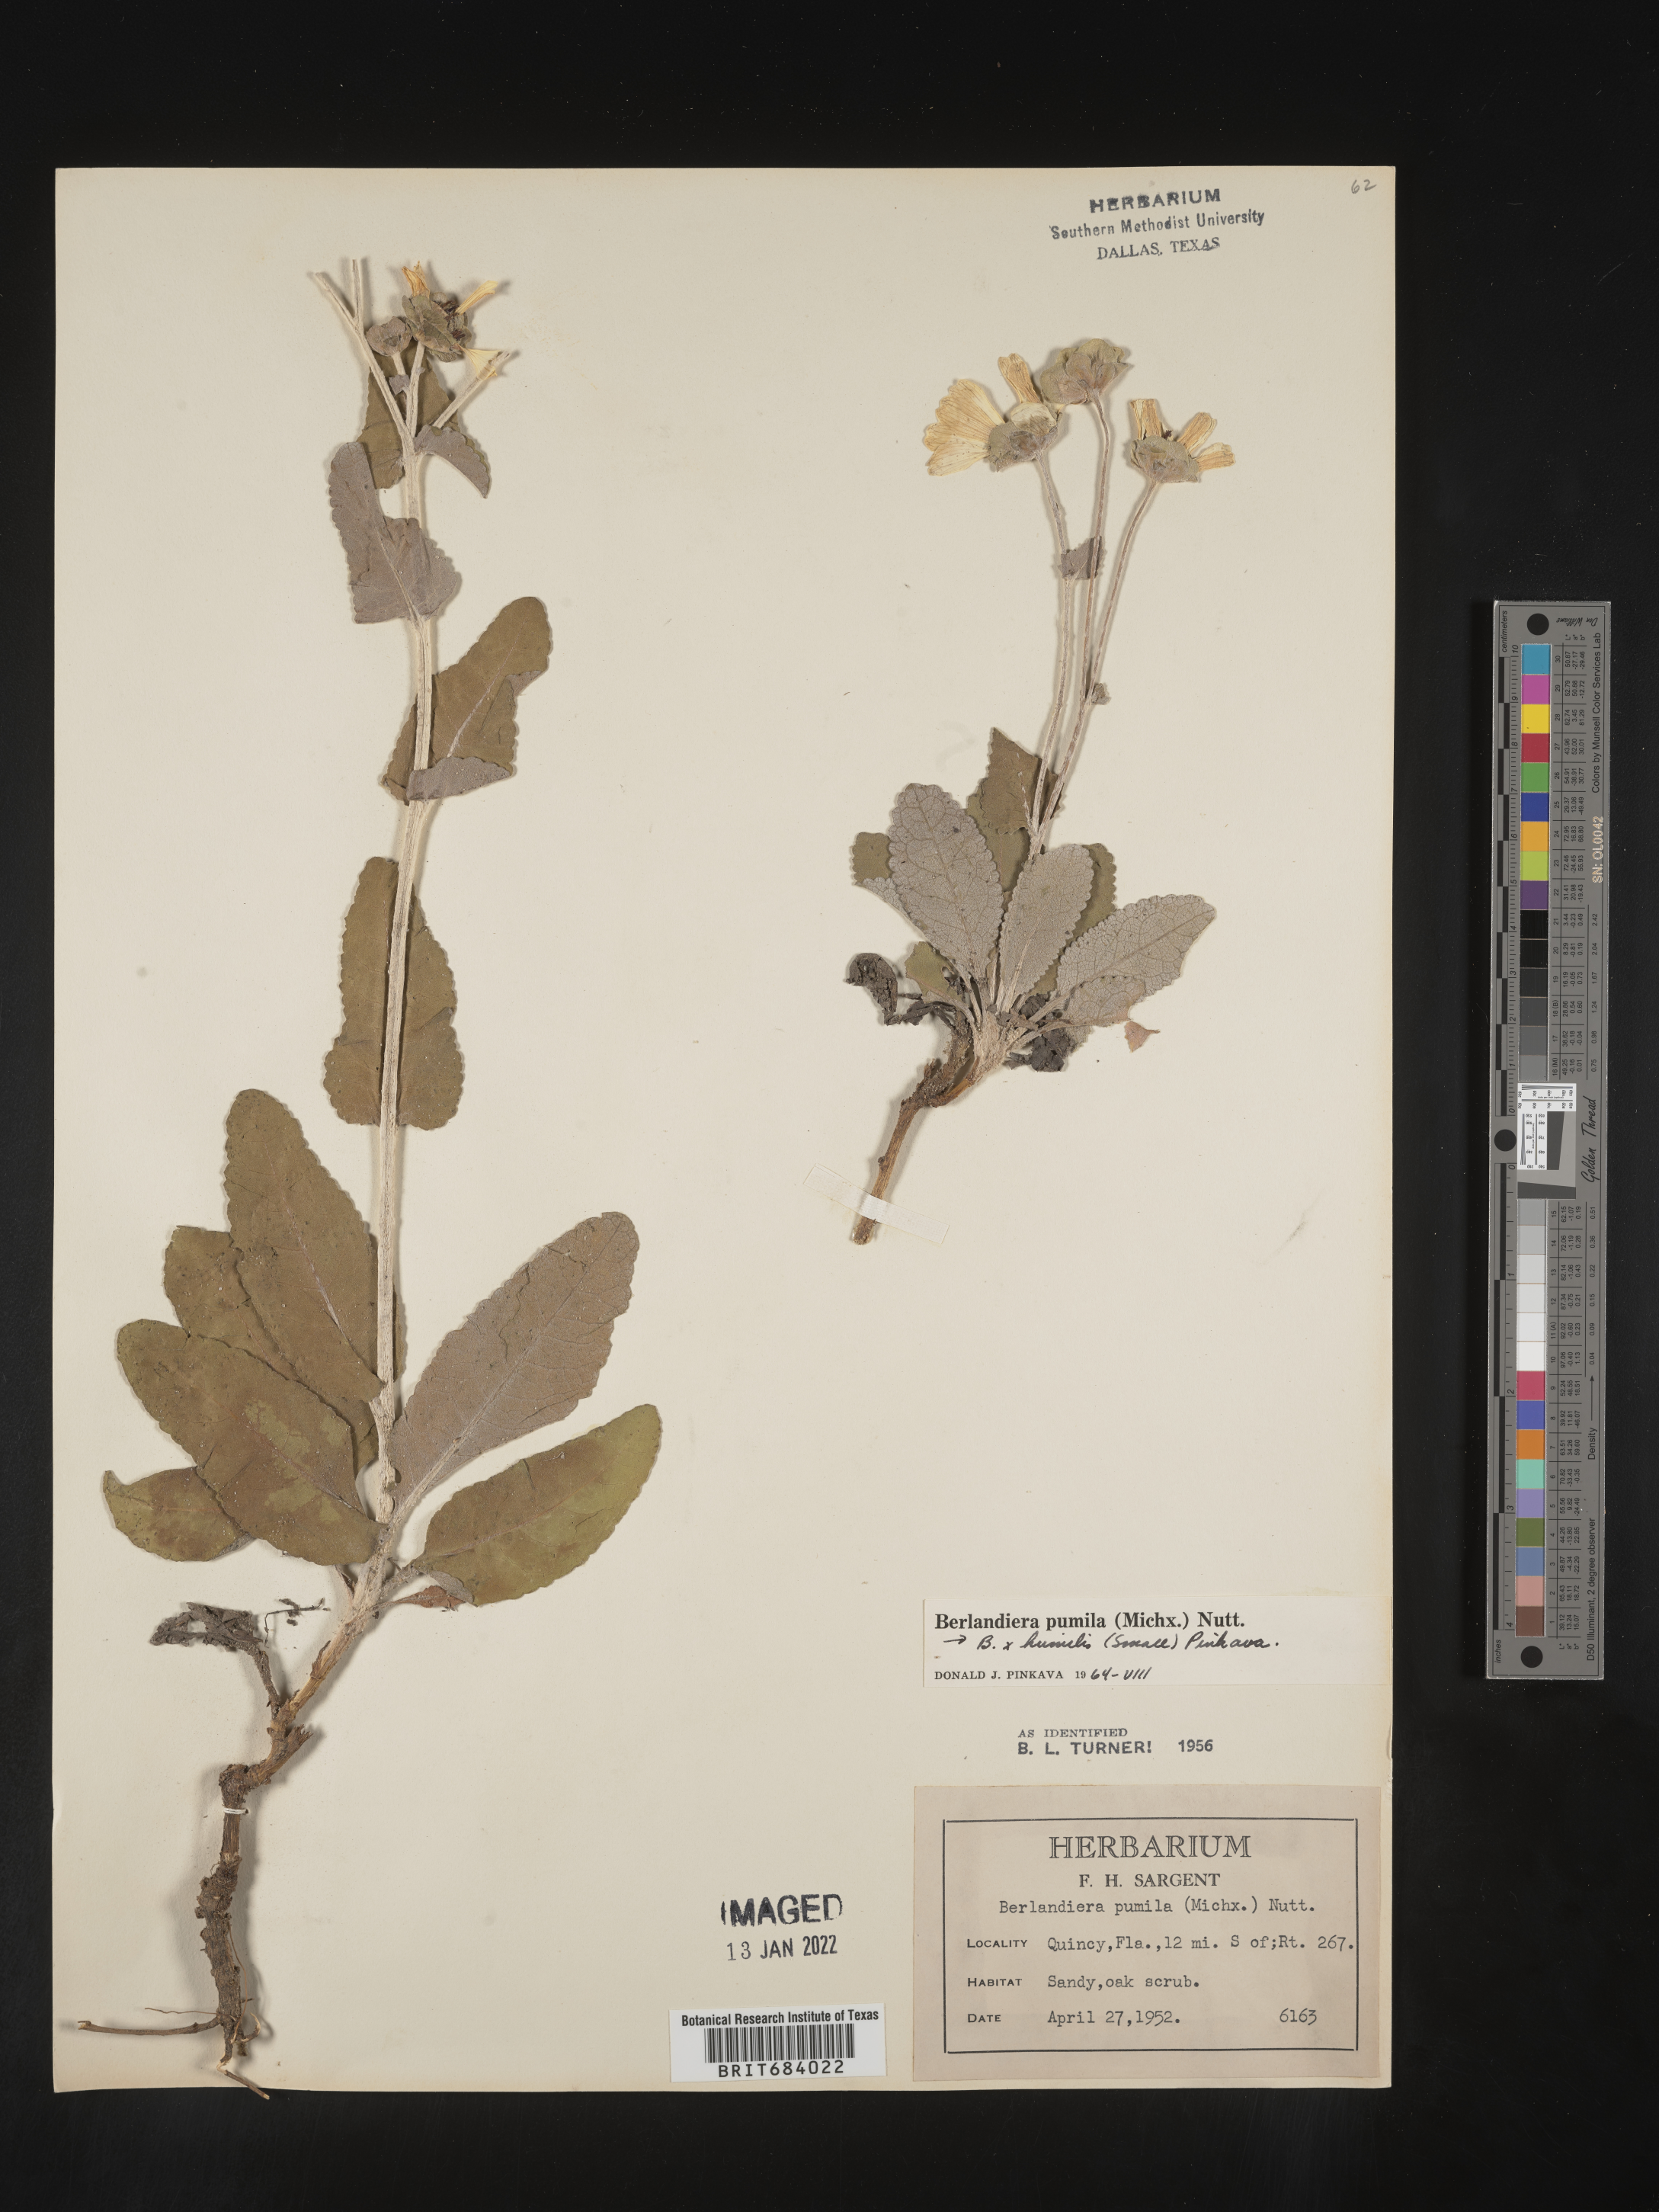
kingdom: Plantae
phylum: Tracheophyta
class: Magnoliopsida
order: Asterales
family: Asteraceae
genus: Berlandiera
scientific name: Berlandiera pumila
